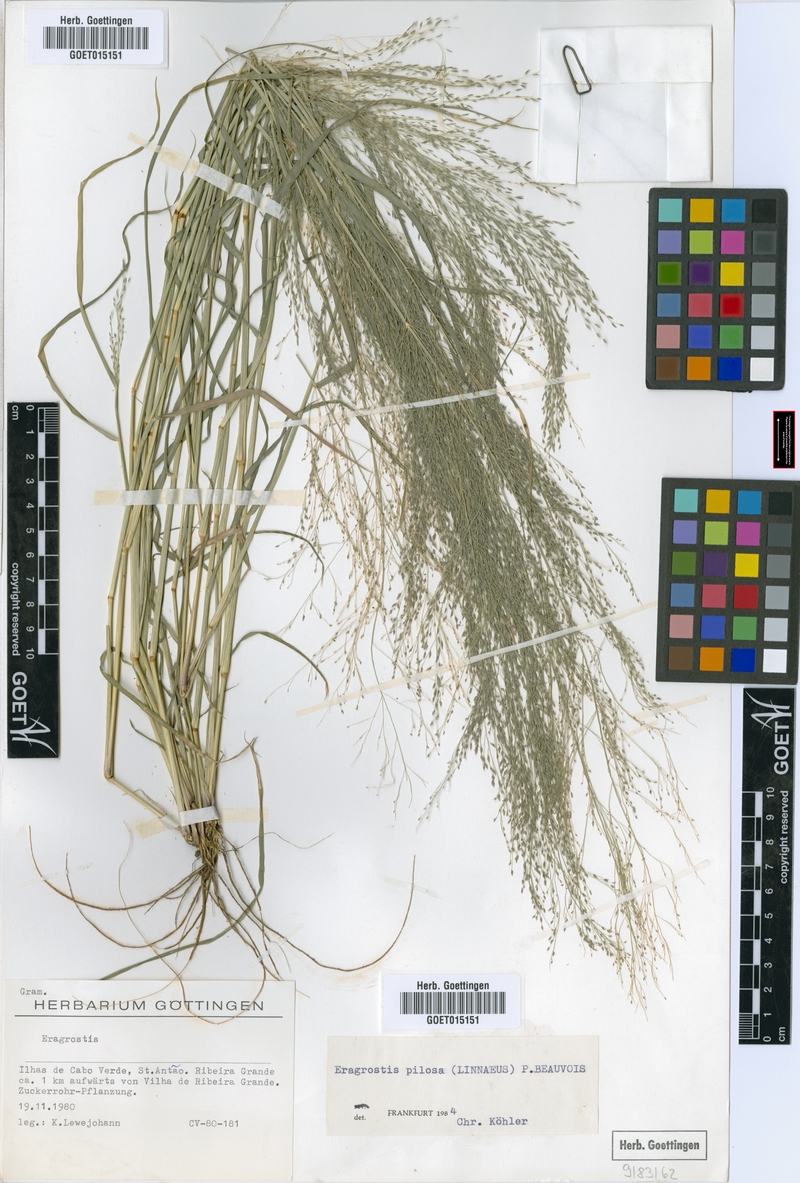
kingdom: Plantae
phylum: Tracheophyta
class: Liliopsida
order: Poales
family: Poaceae
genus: Eragrostis
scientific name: Eragrostis pilosa
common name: Indian lovegrass
